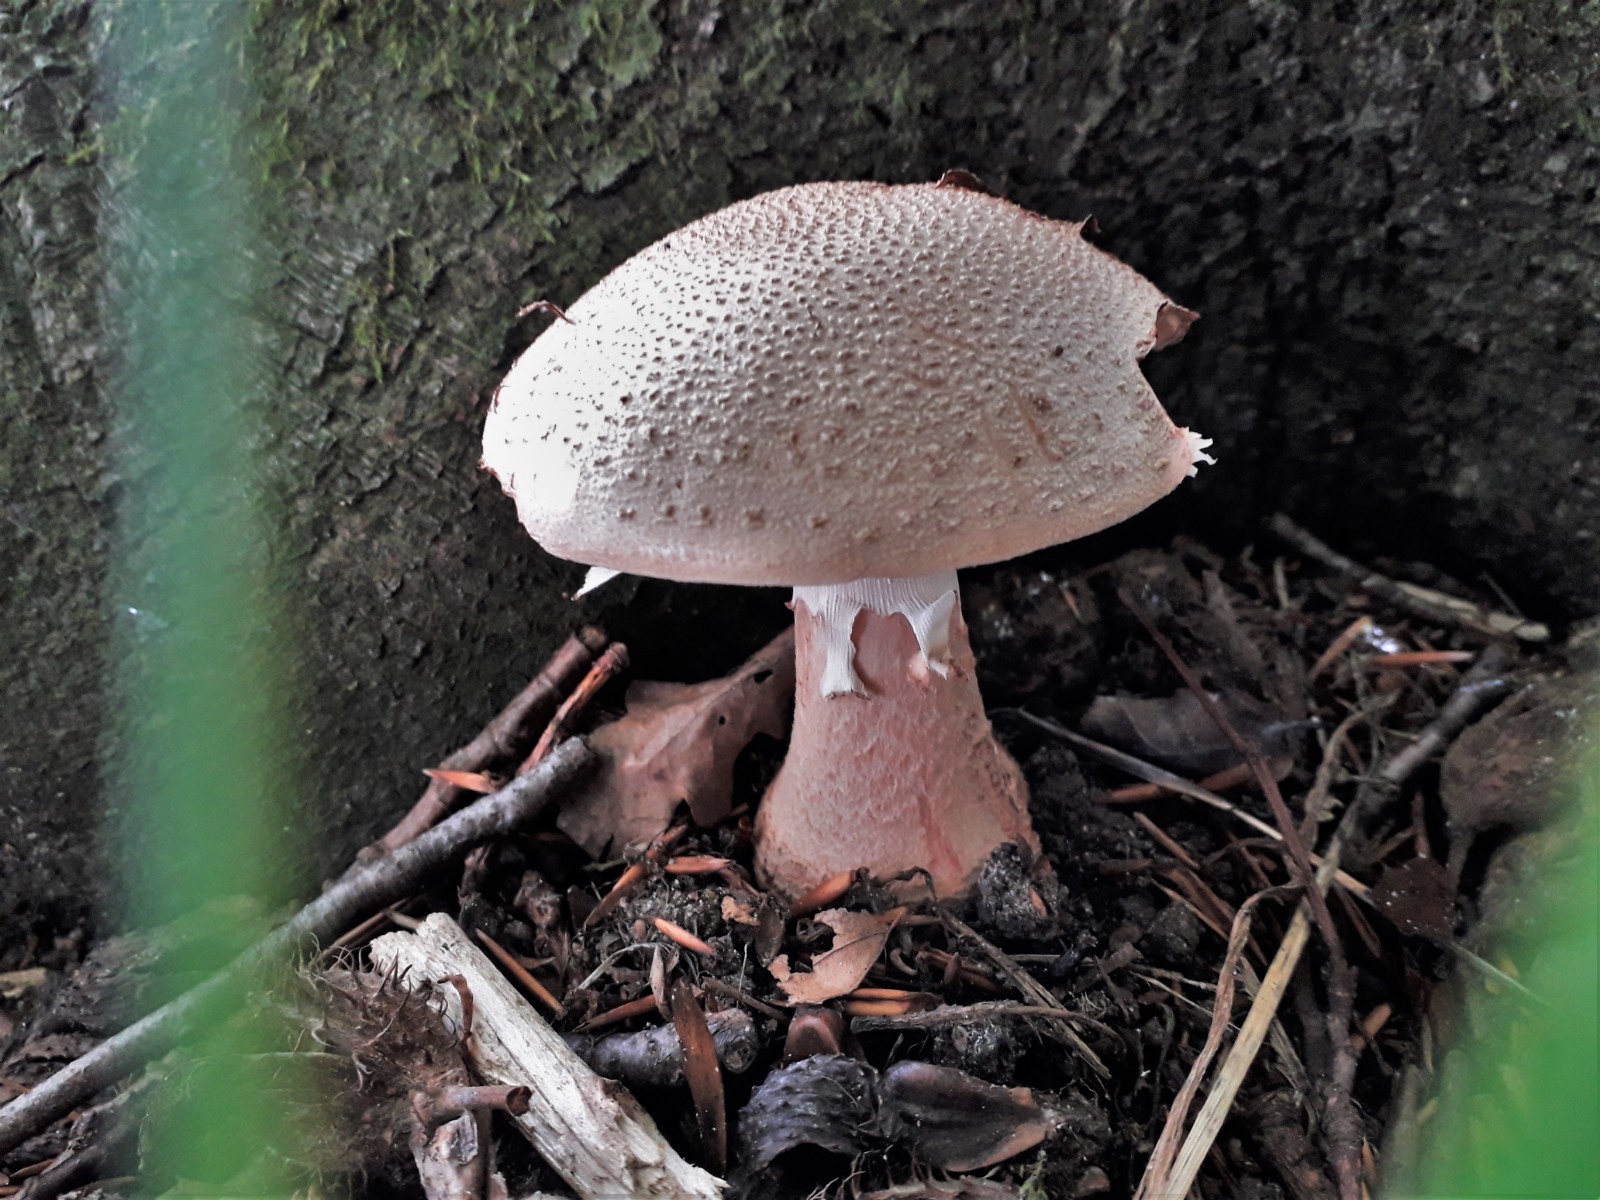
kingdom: Fungi
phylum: Basidiomycota
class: Agaricomycetes
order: Agaricales
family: Amanitaceae
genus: Amanita
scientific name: Amanita rubescens
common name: rødmende fluesvamp
